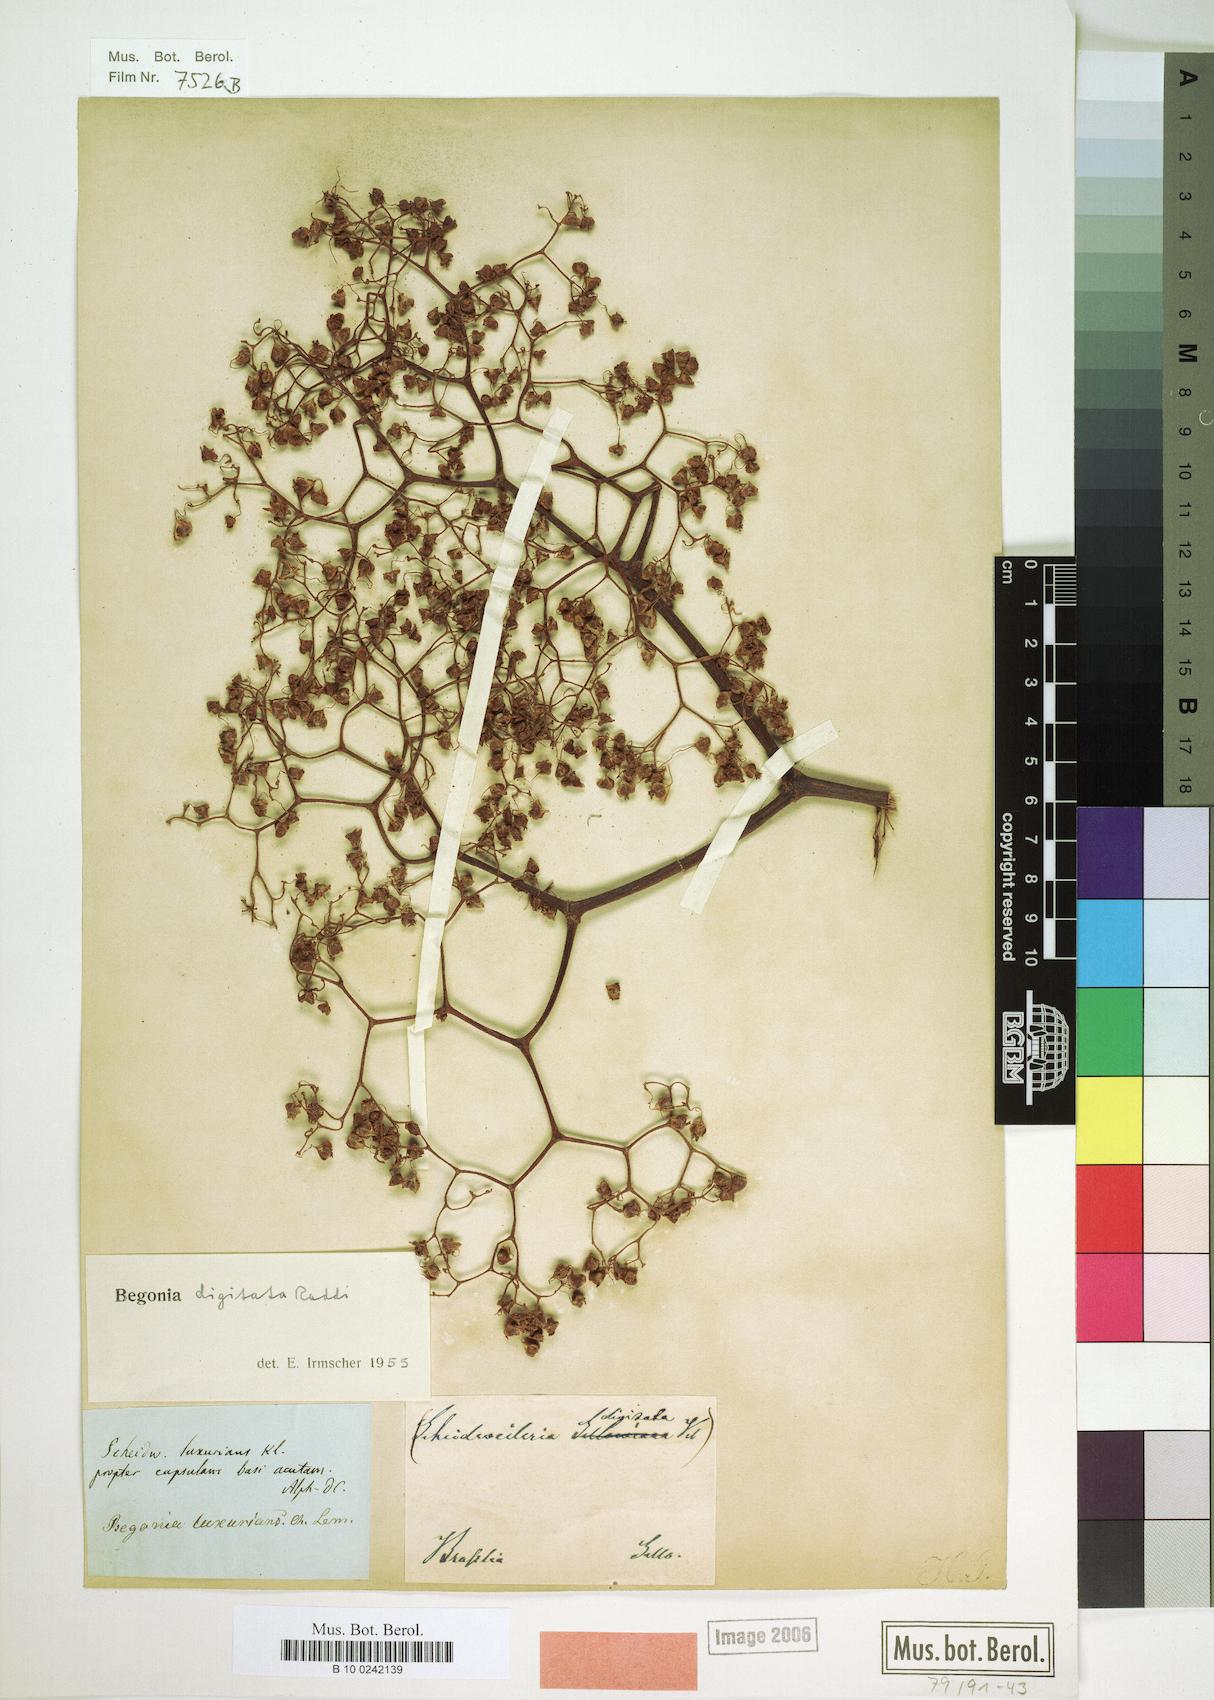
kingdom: Plantae
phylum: Tracheophyta
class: Magnoliopsida
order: Cucurbitales
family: Begoniaceae
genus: Begonia
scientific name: Begonia digitata
